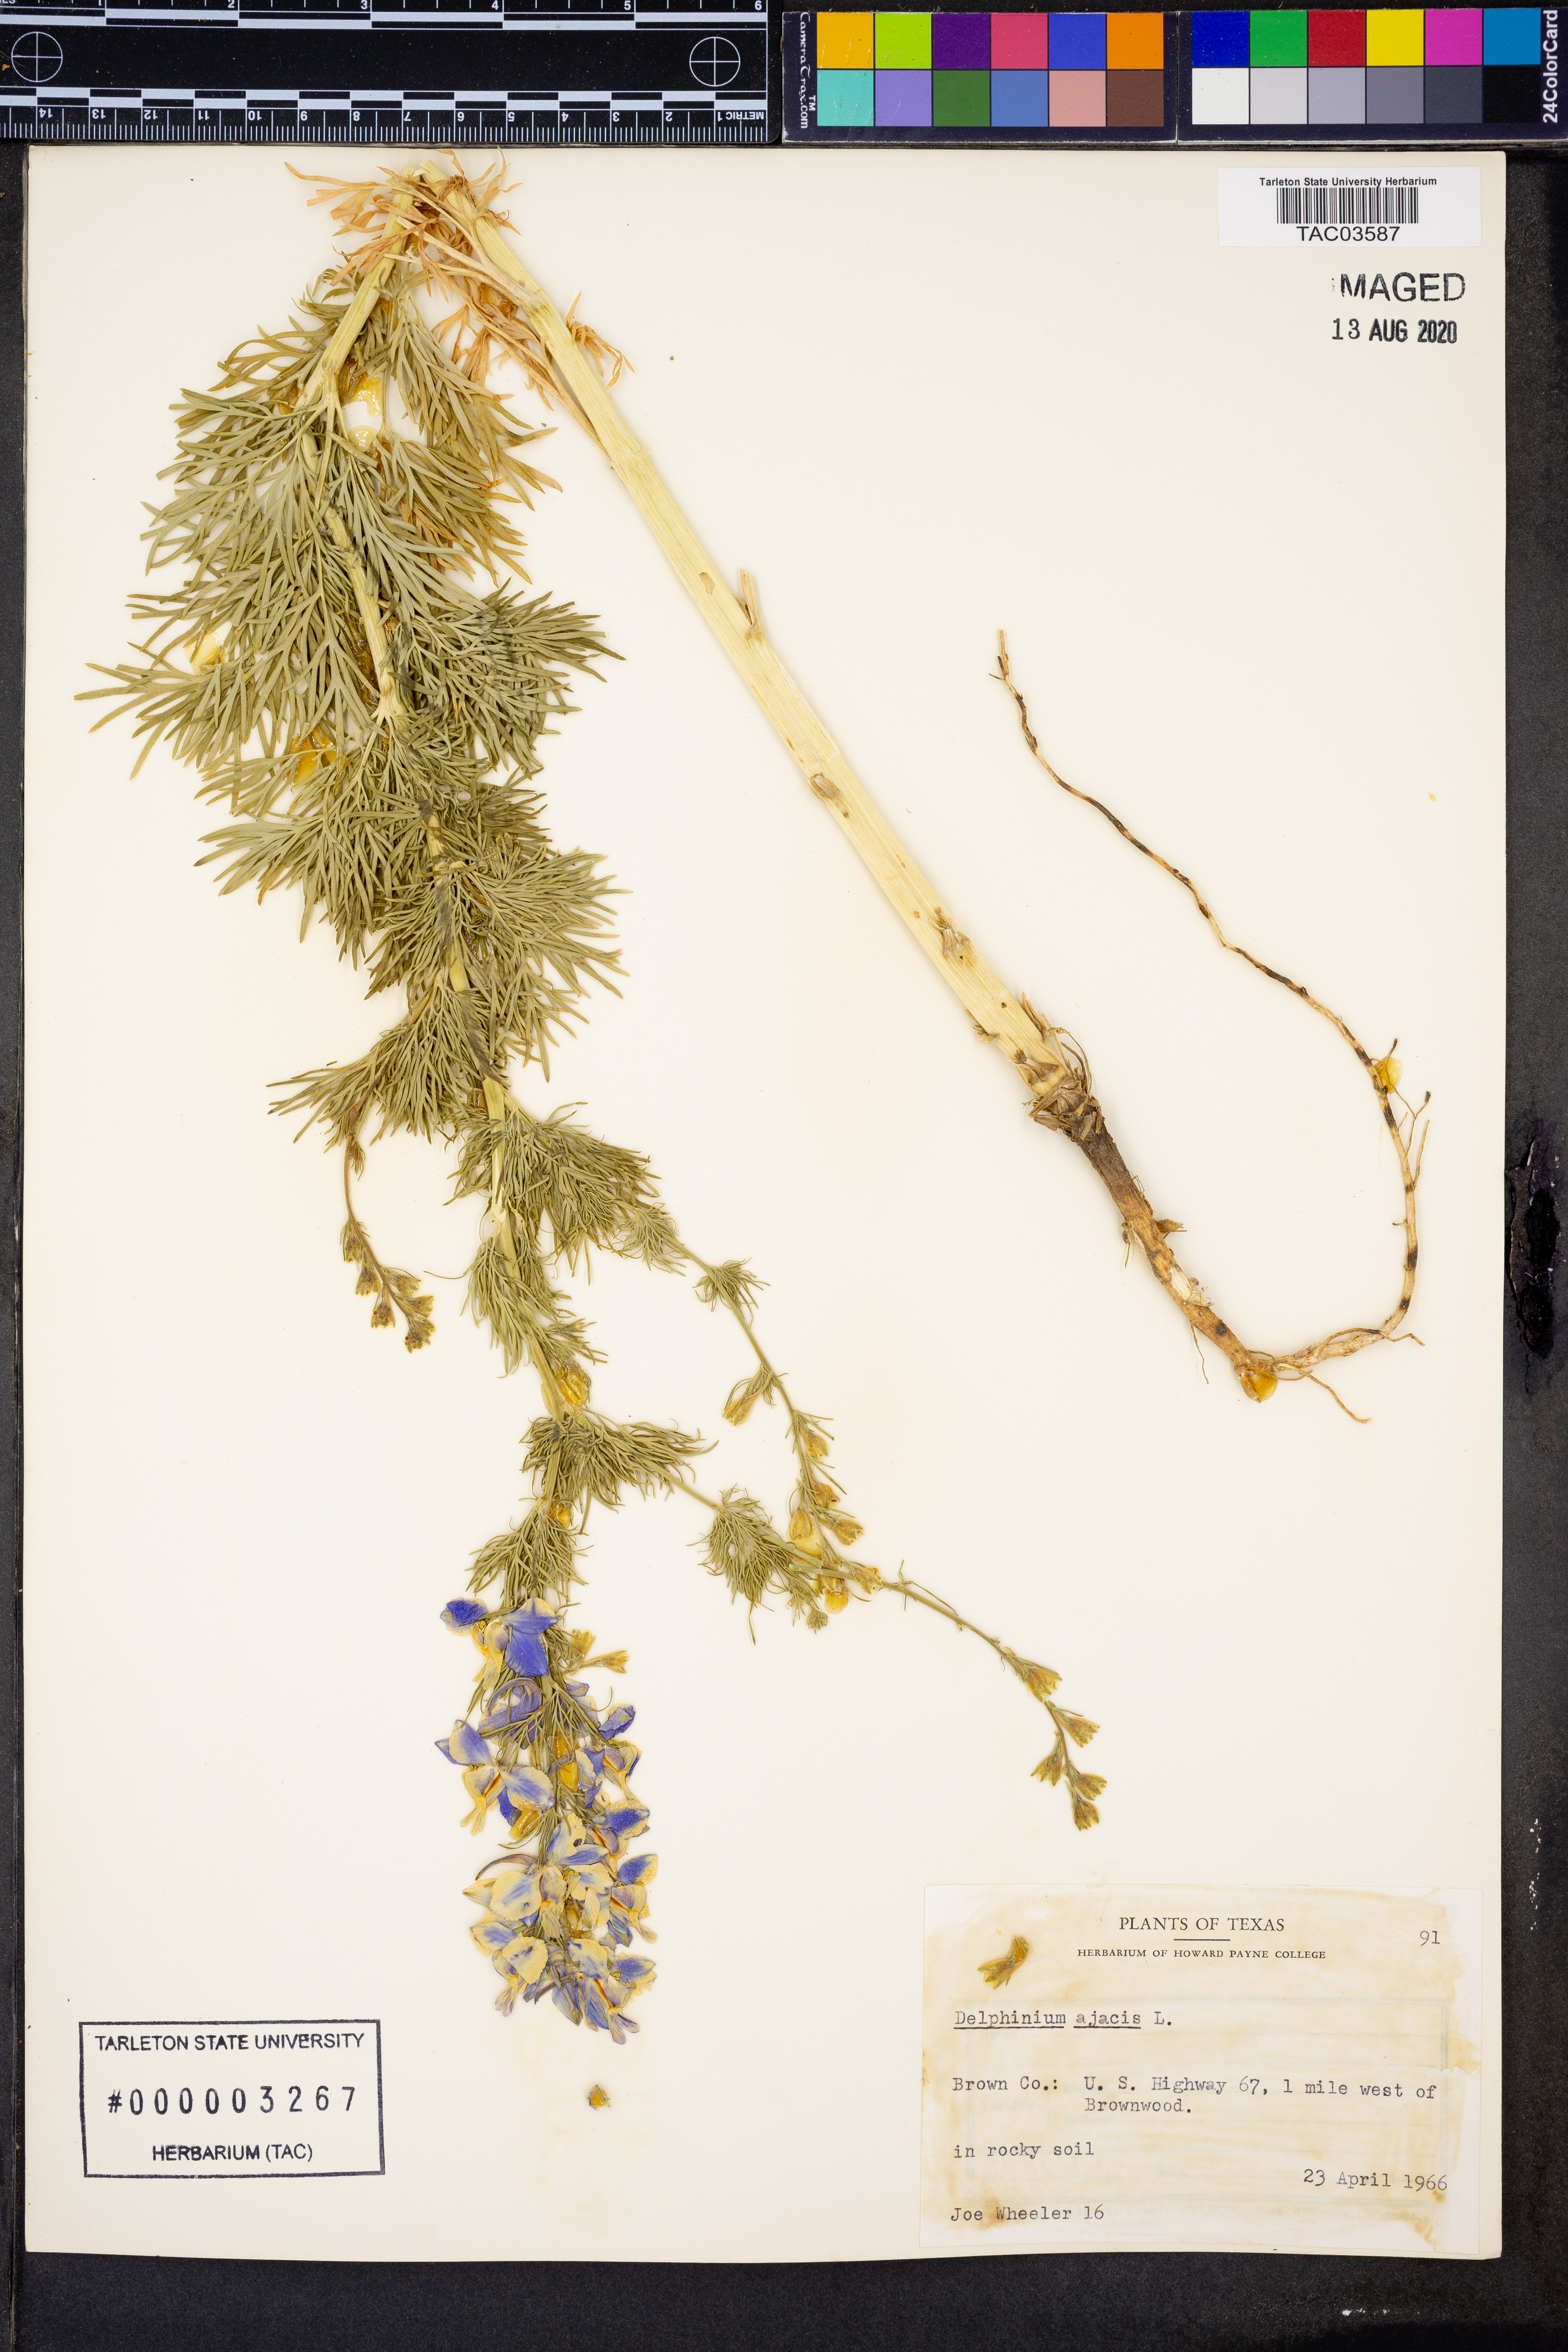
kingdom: Plantae
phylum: Tracheophyta
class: Magnoliopsida
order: Ranunculales
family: Ranunculaceae
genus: Delphinium
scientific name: Delphinium ajacis
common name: Doubtful knight's-spur
